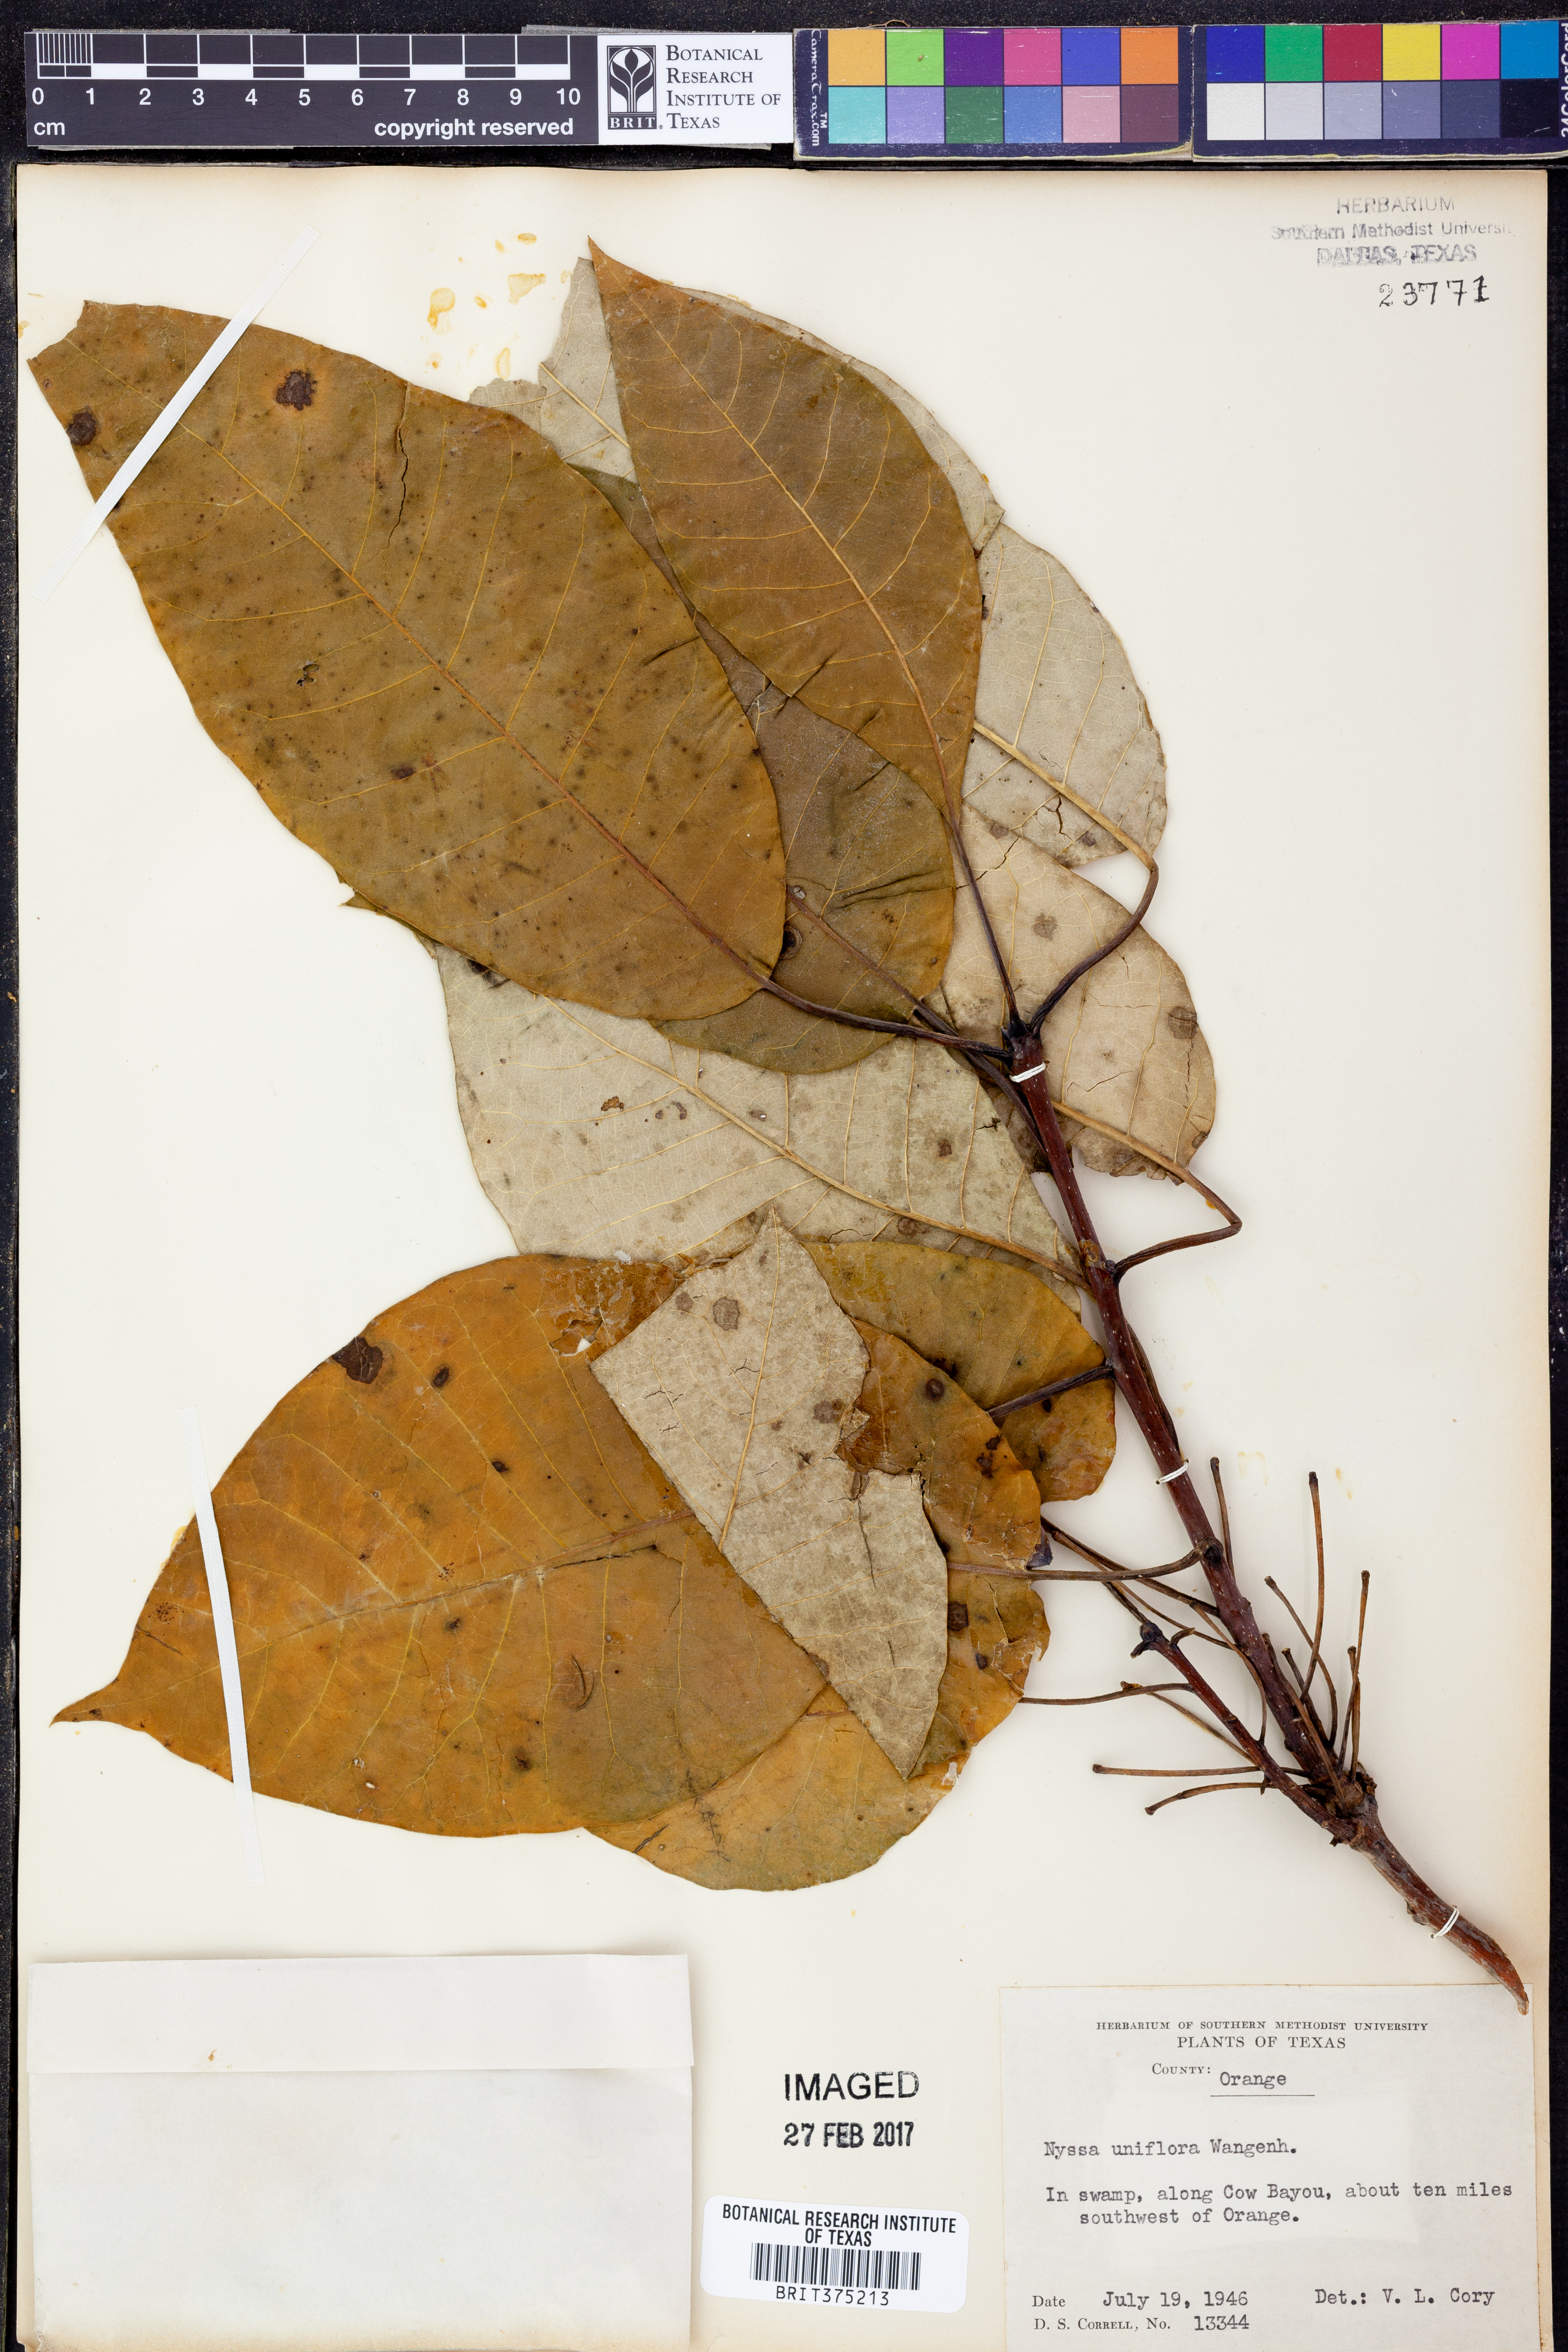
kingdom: Plantae
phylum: Tracheophyta
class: Magnoliopsida
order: Cornales
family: Nyssaceae
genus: Nyssa
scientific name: Nyssa aquatica
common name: Swamp tupelo
